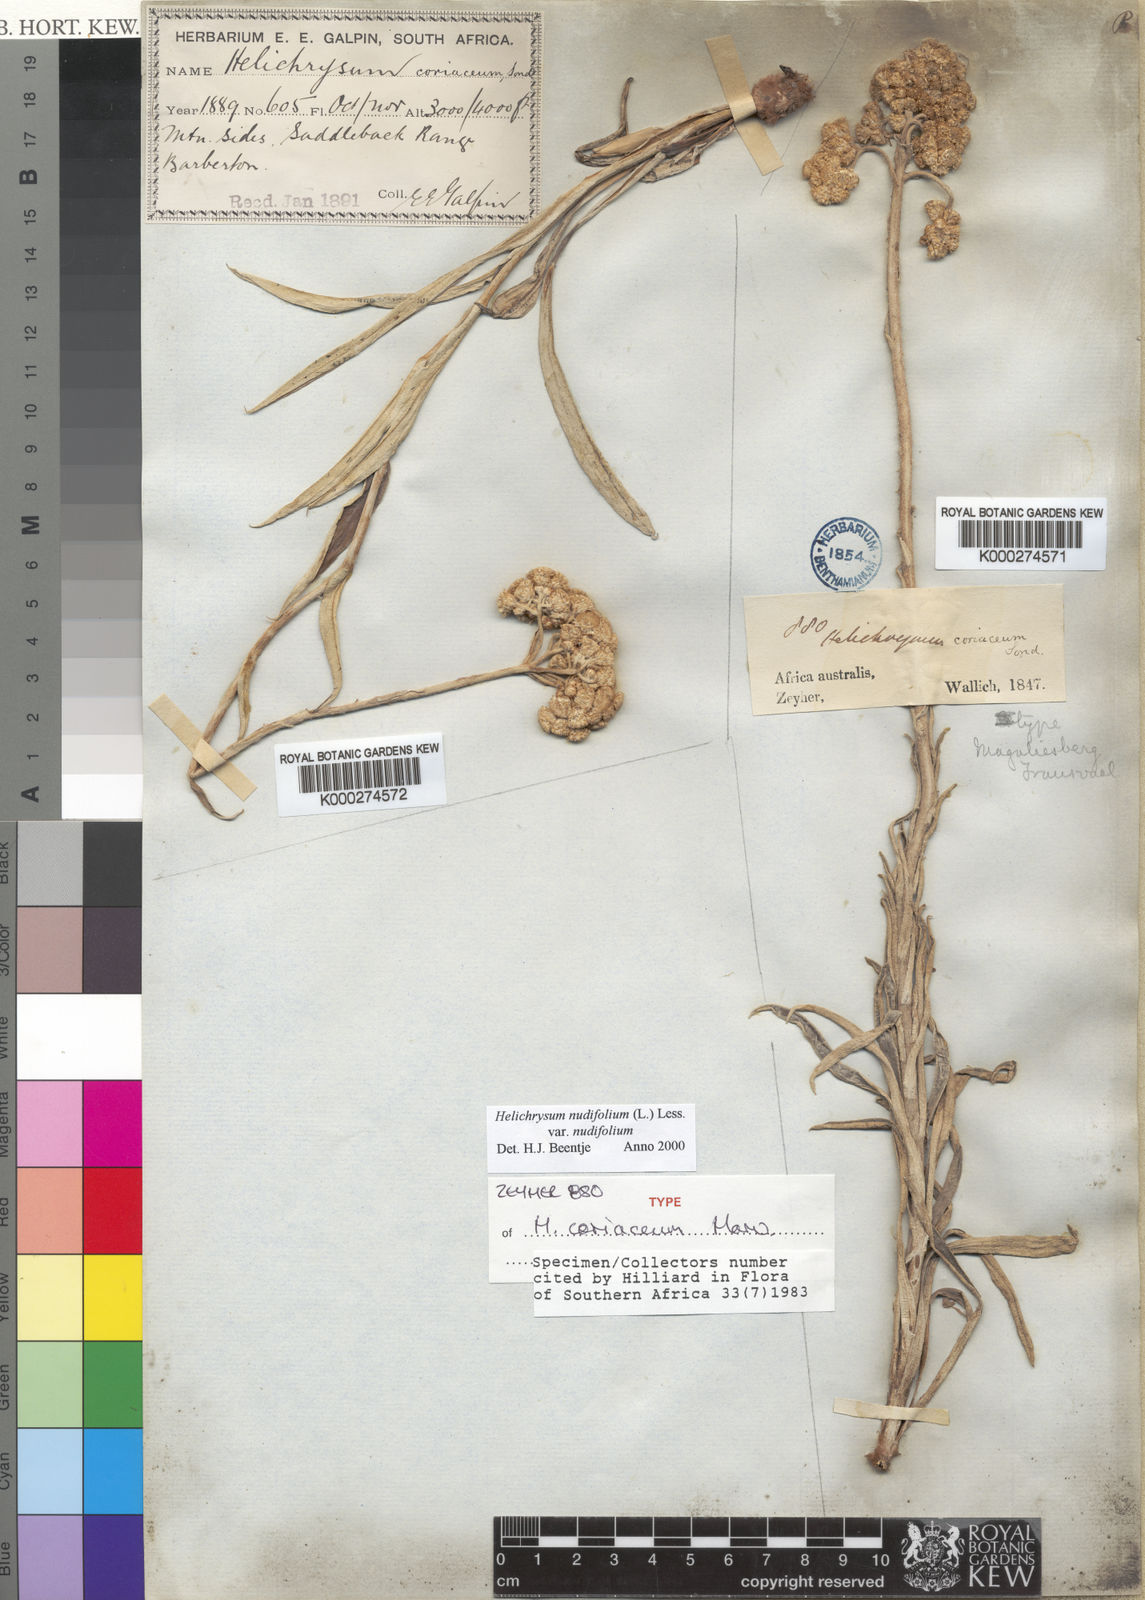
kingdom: Plantae
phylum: Tracheophyta
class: Magnoliopsida
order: Asterales
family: Asteraceae
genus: Helichrysum
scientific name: Helichrysum nudifolium
